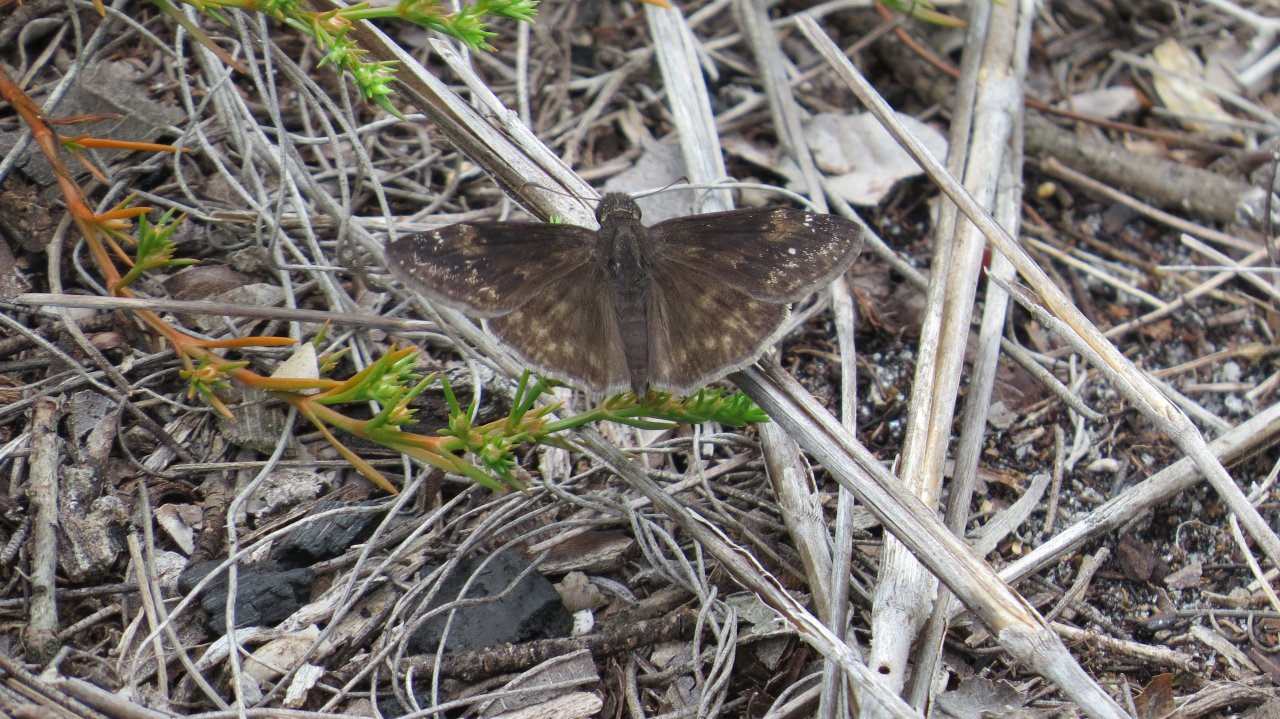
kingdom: Animalia
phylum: Arthropoda
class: Insecta
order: Lepidoptera
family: Hesperiidae
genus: Erynnis
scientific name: Erynnis zarucco
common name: Zarucco Duskywing
